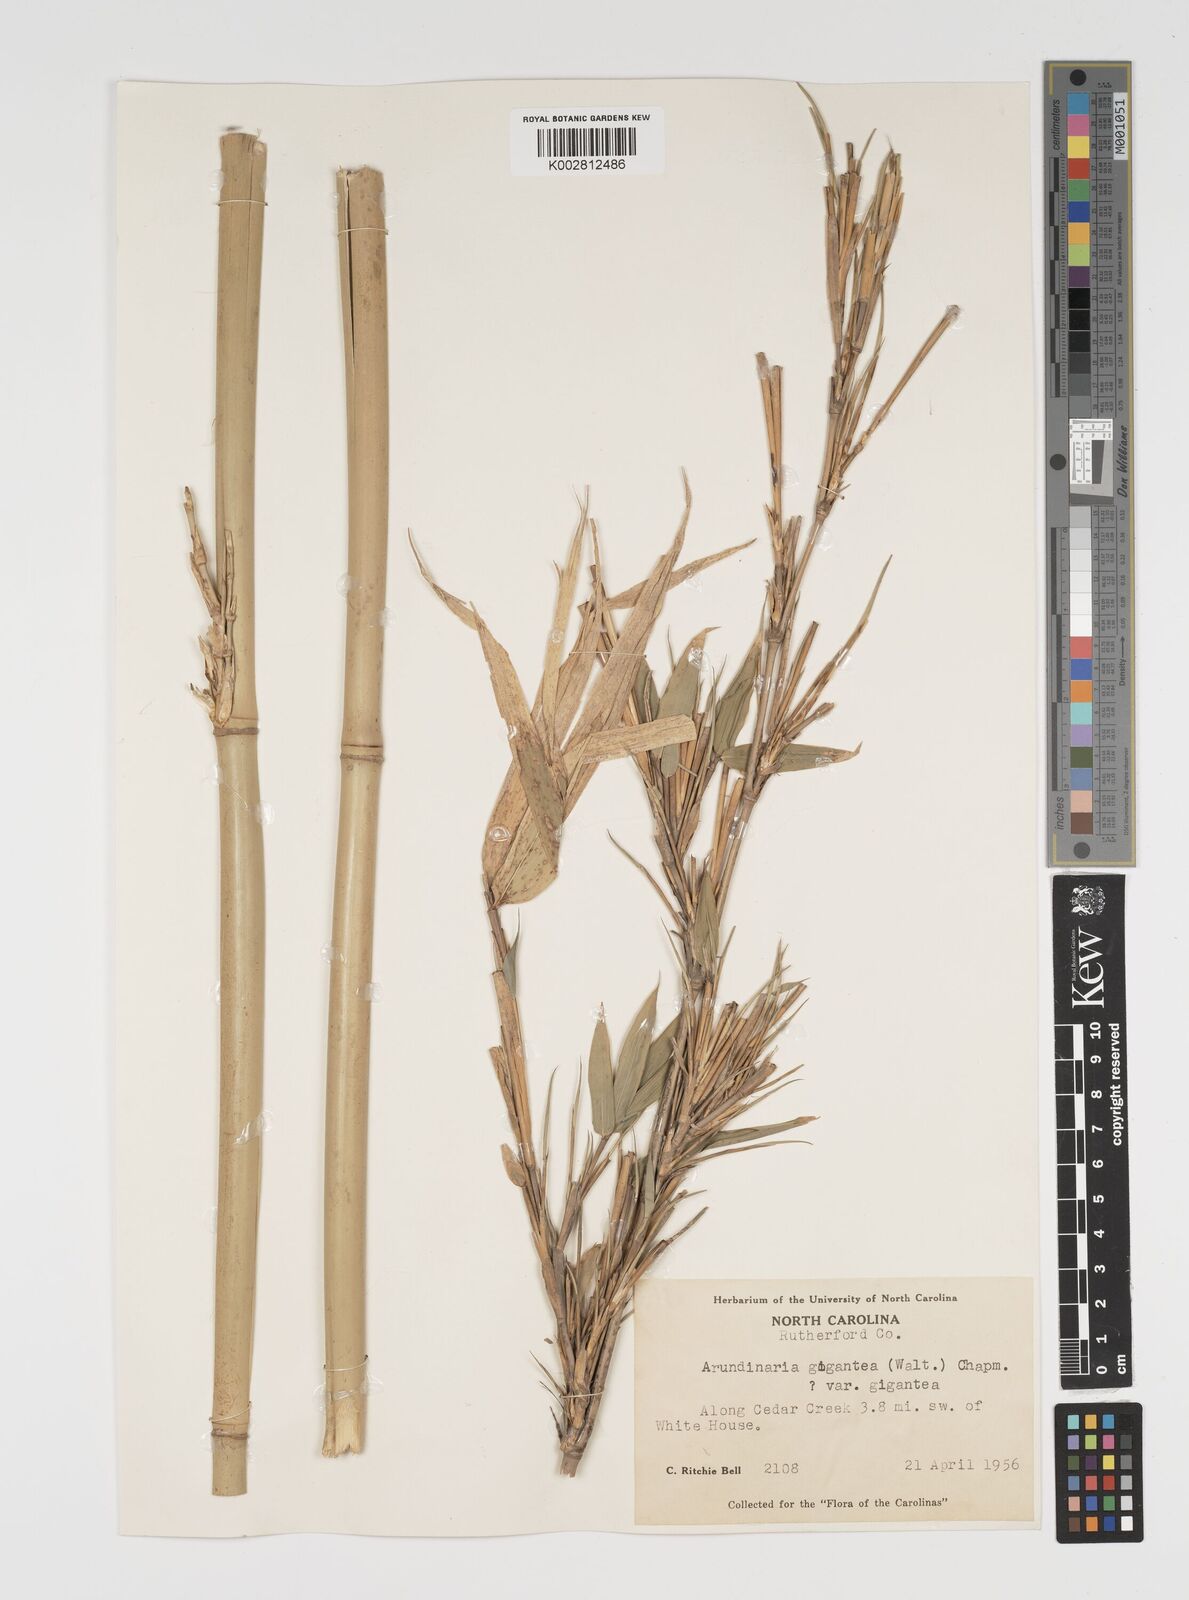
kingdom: Plantae
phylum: Tracheophyta
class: Liliopsida
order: Poales
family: Poaceae
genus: Pseudosasa
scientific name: Pseudosasa amabilis
